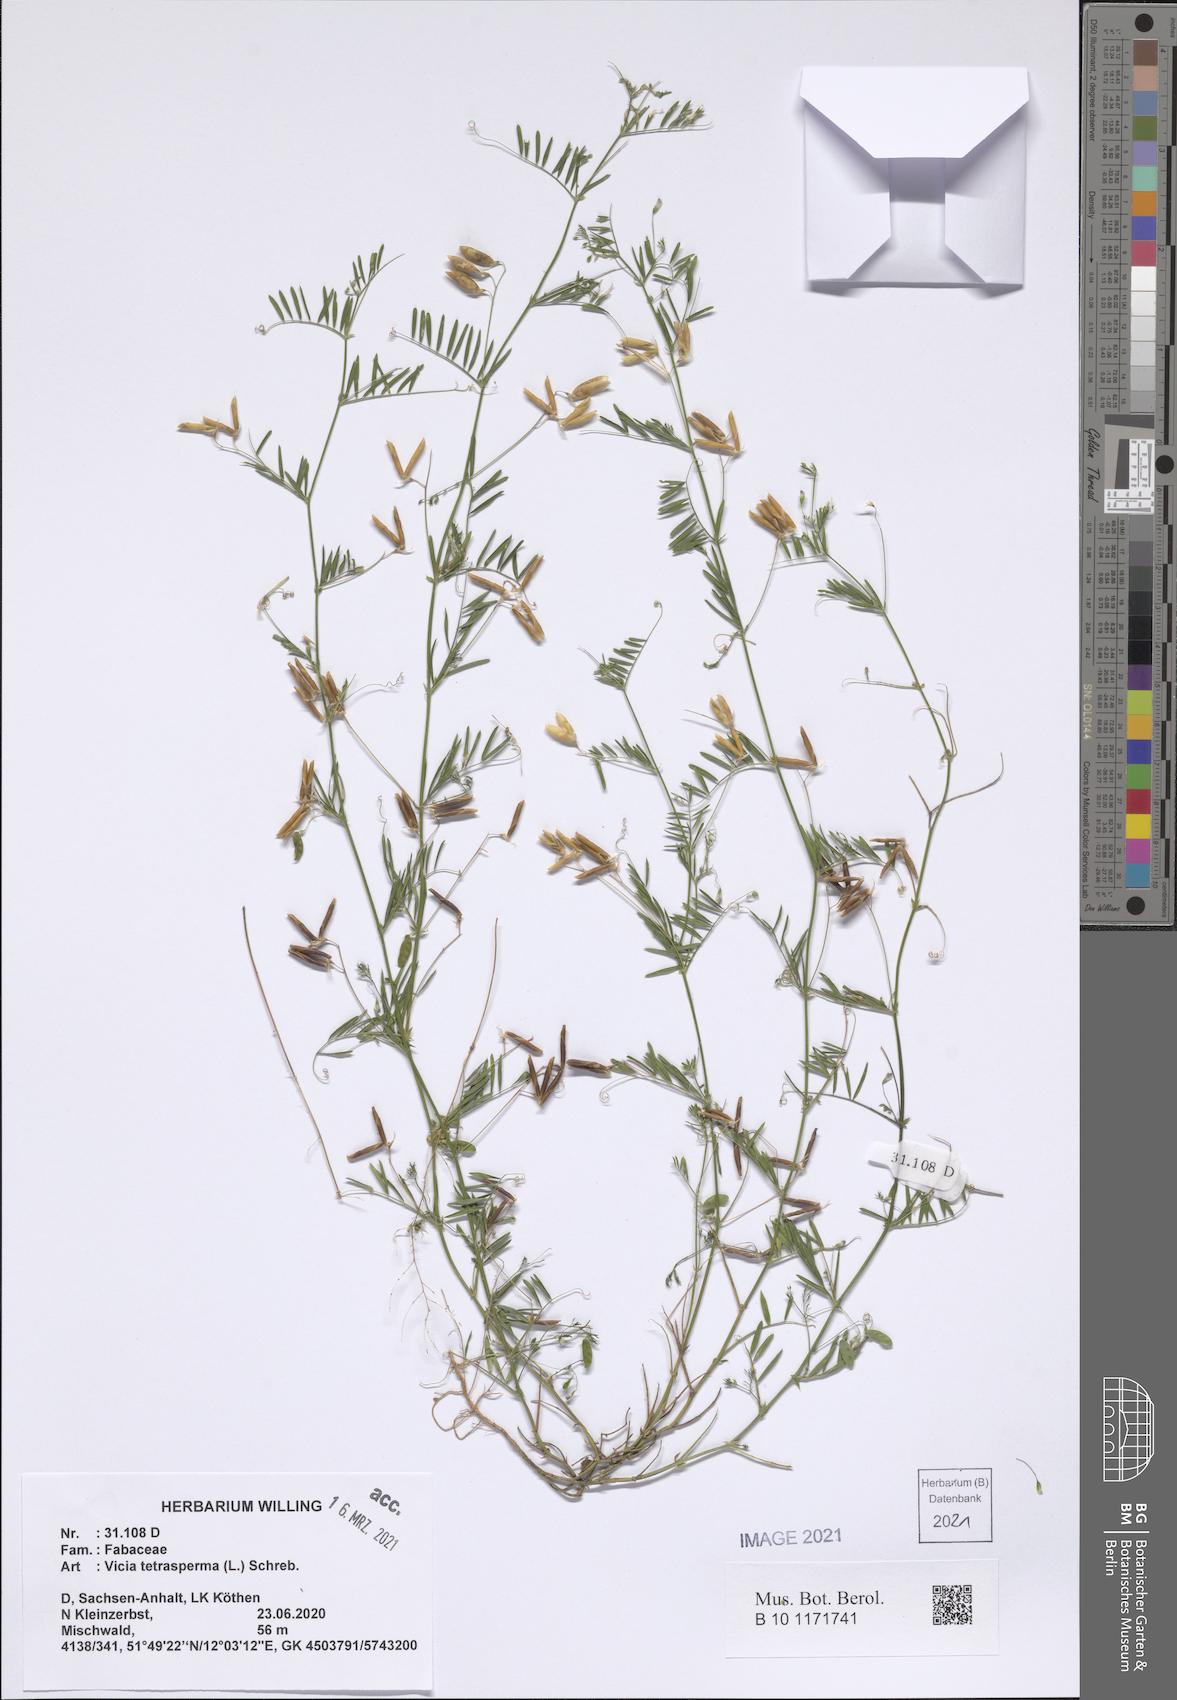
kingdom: Plantae
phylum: Tracheophyta
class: Magnoliopsida
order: Fabales
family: Fabaceae
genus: Vicia
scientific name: Vicia tetrasperma
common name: Smooth tare
